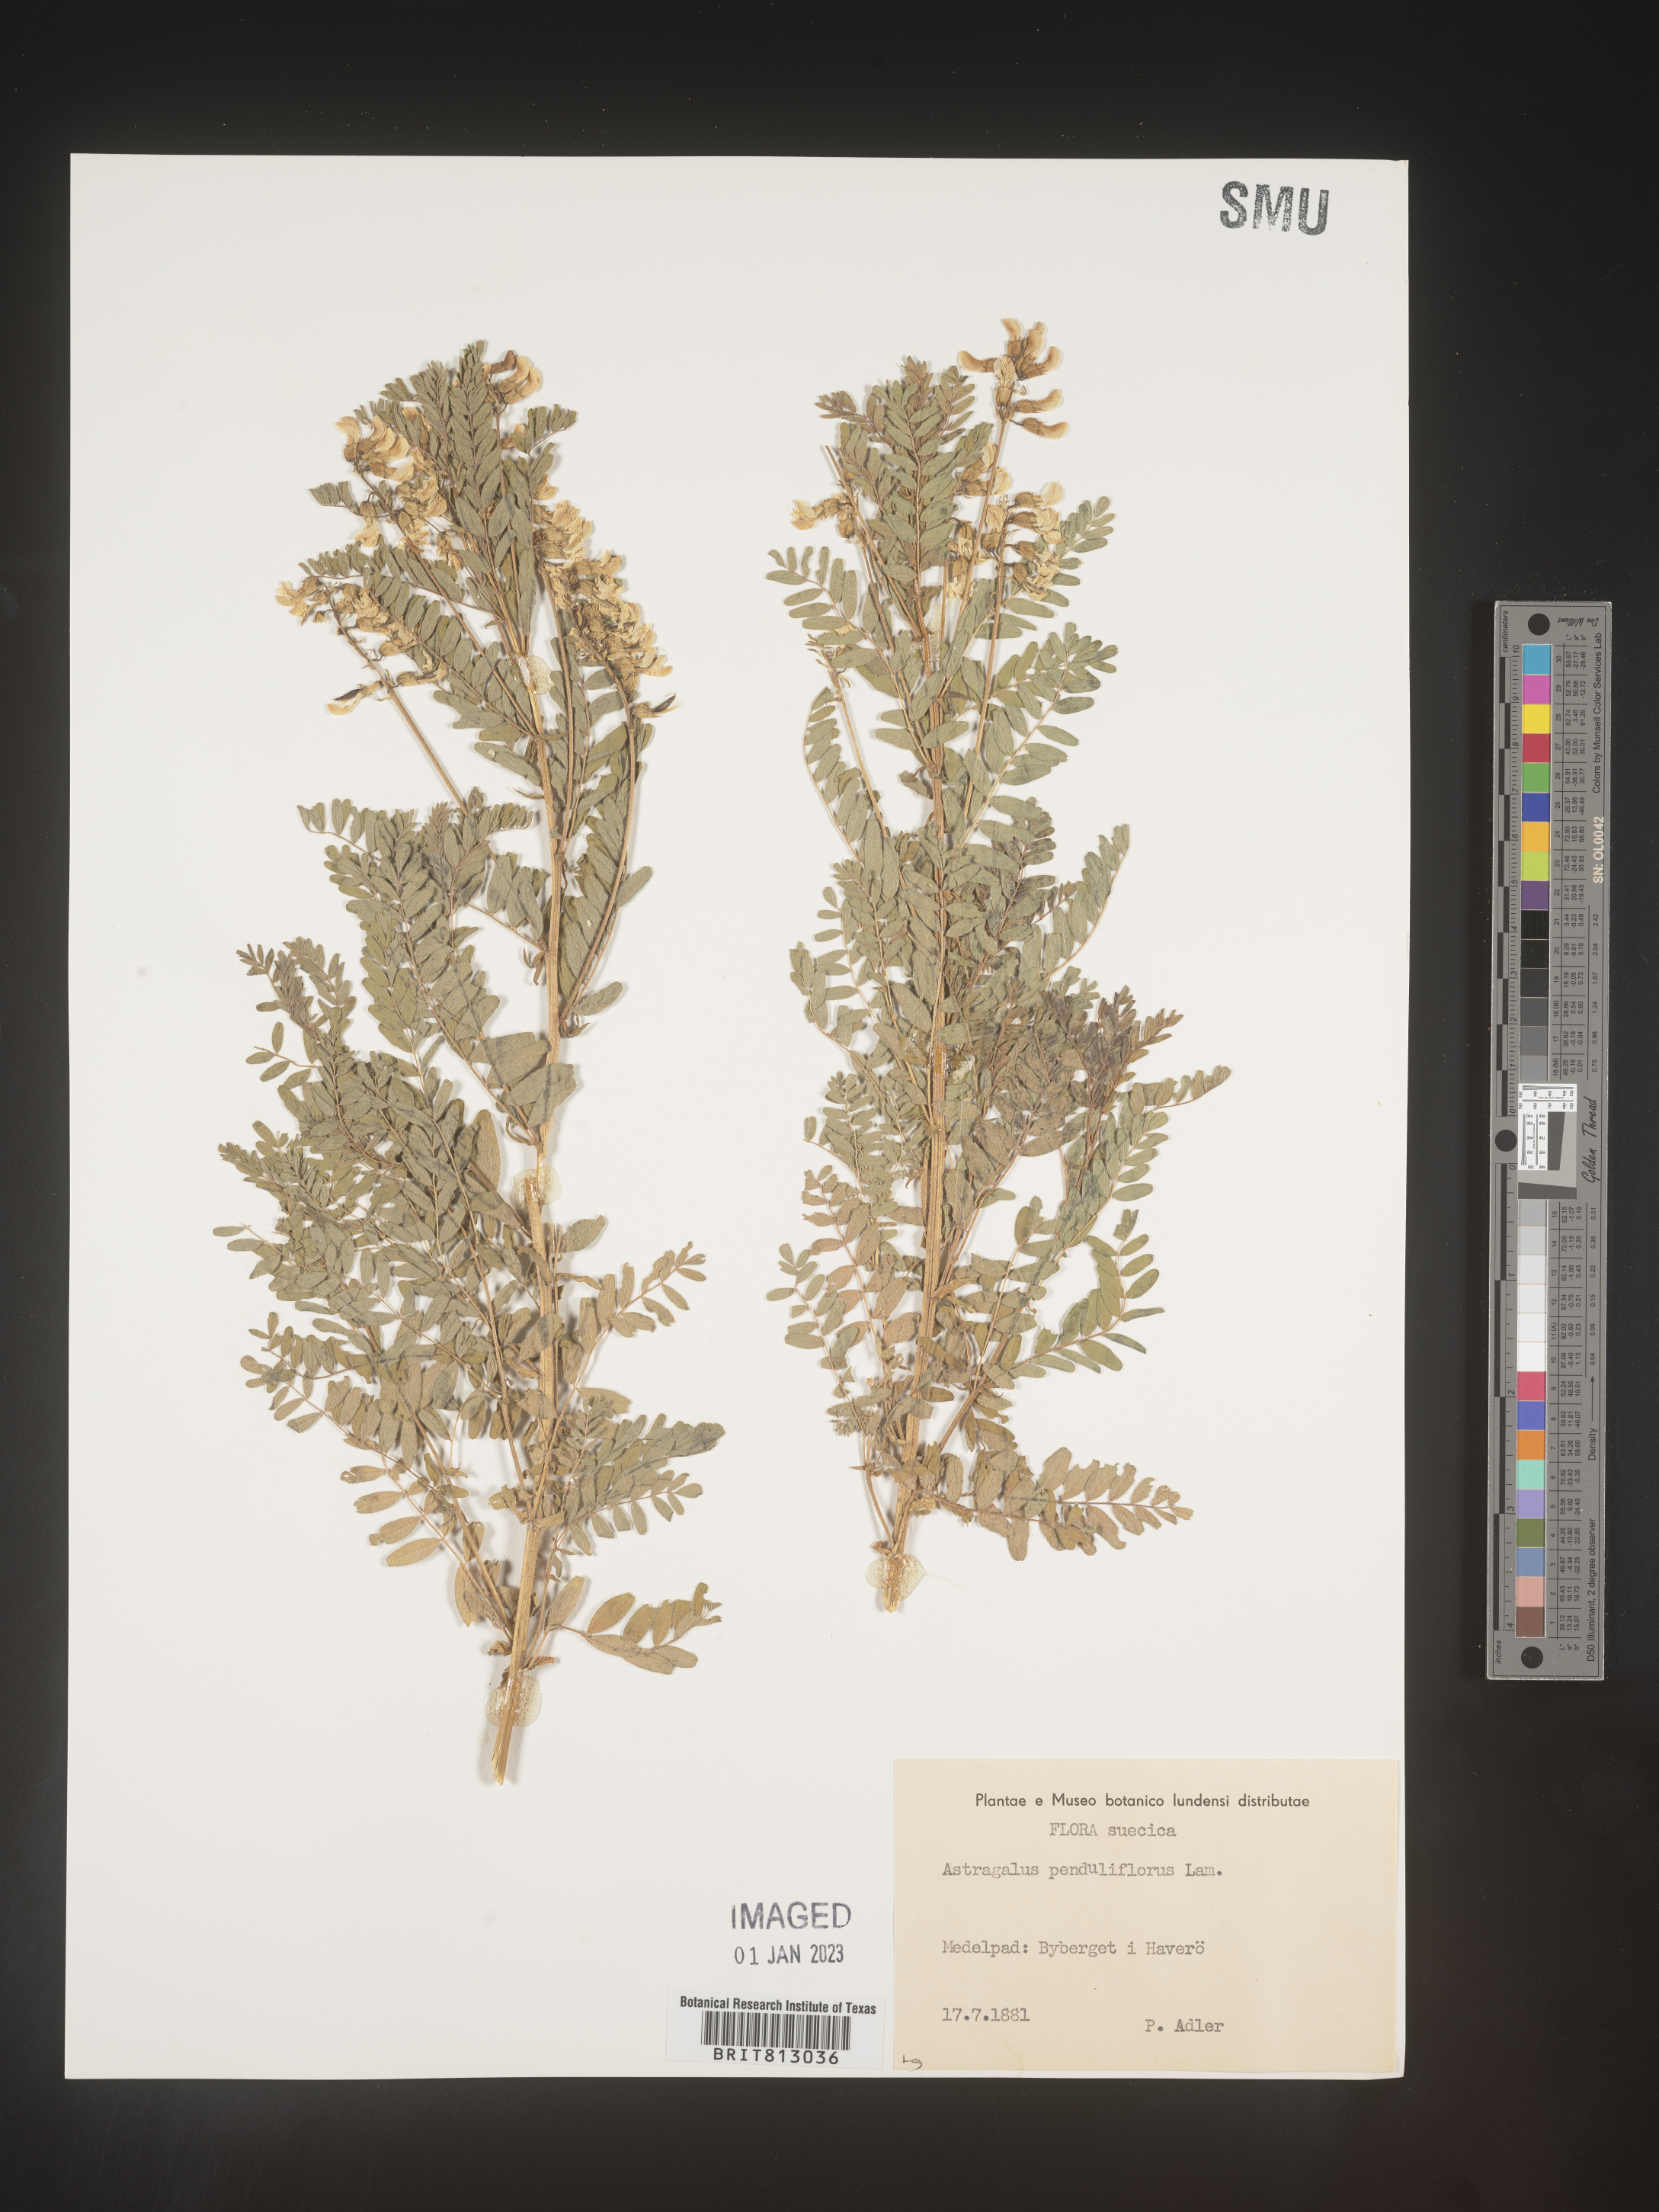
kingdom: Plantae
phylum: Tracheophyta
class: Magnoliopsida
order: Fabales
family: Fabaceae
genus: Astragalus
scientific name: Astragalus
